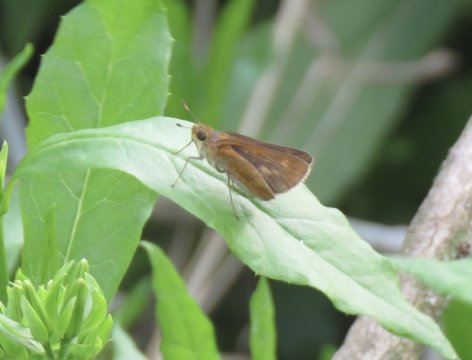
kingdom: Animalia
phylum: Arthropoda
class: Insecta
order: Lepidoptera
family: Hesperiidae
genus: Wallengrenia
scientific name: Wallengrenia otho
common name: Southern Broken-Dash
